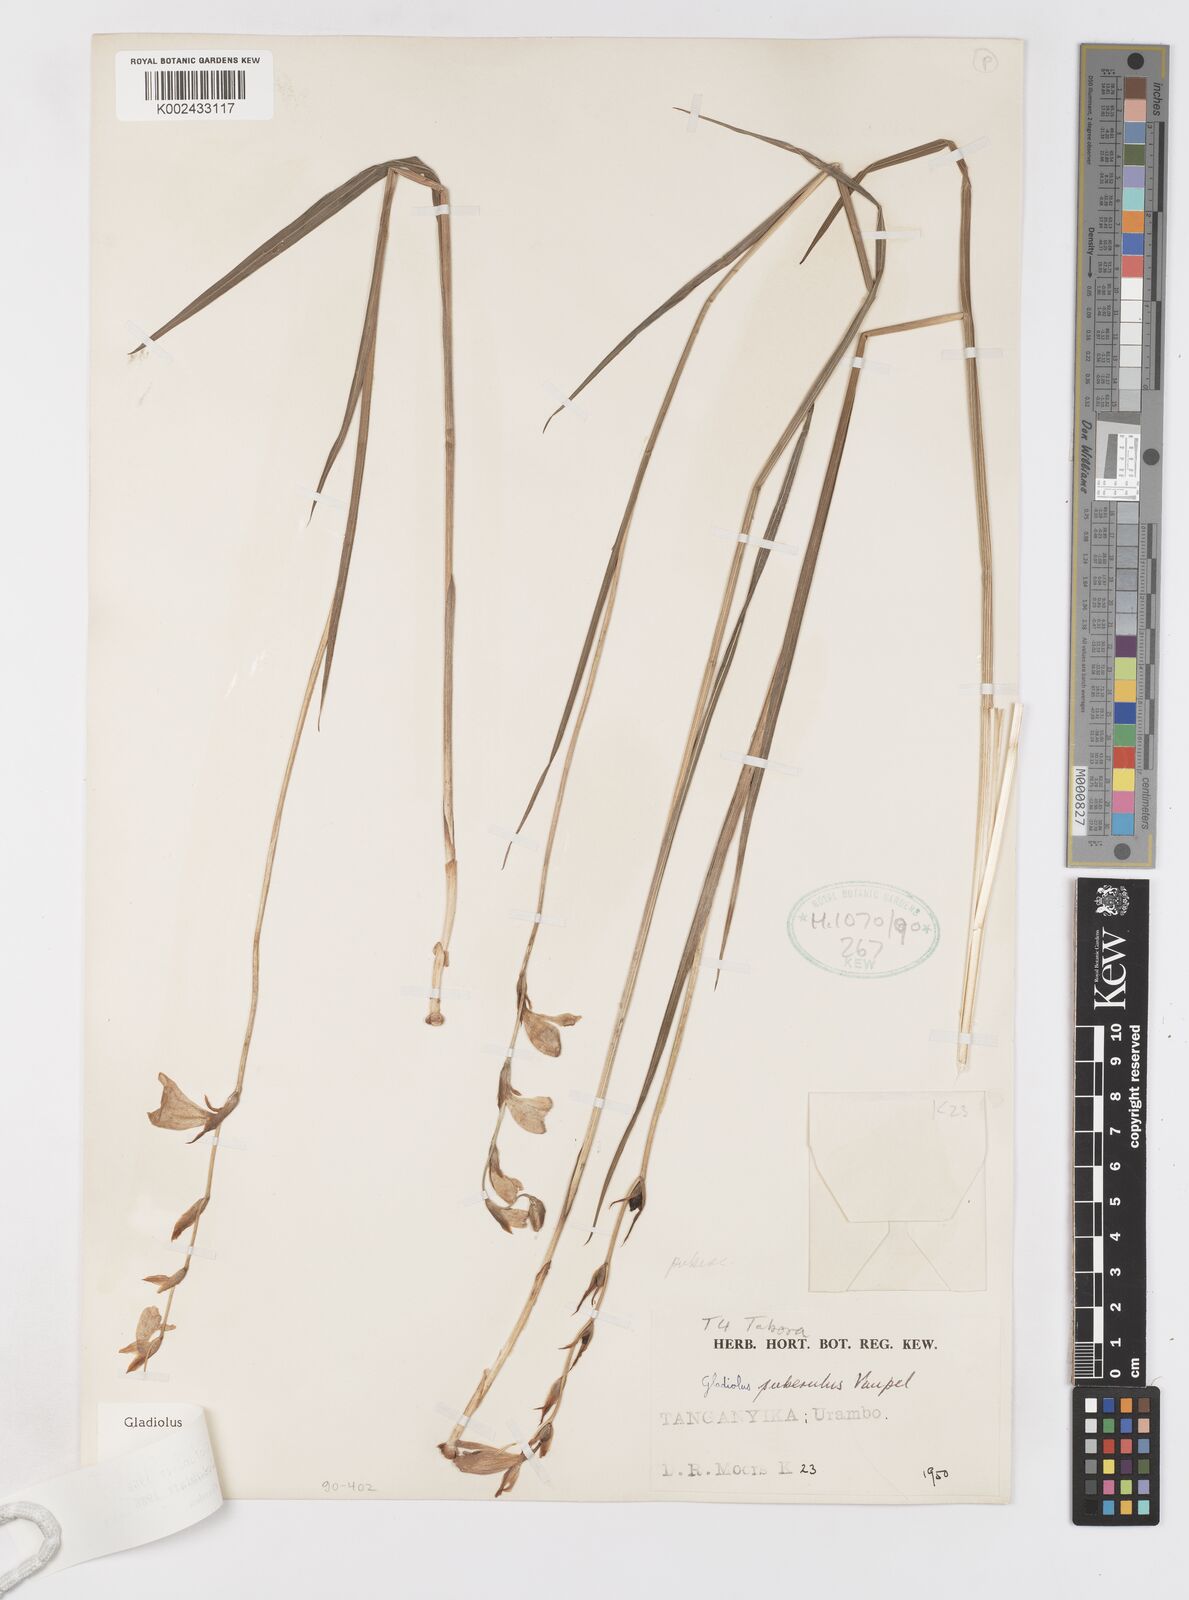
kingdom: Plantae
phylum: Tracheophyta
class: Liliopsida
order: Asparagales
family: Iridaceae
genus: Gladiolus
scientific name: Gladiolus intonsus
